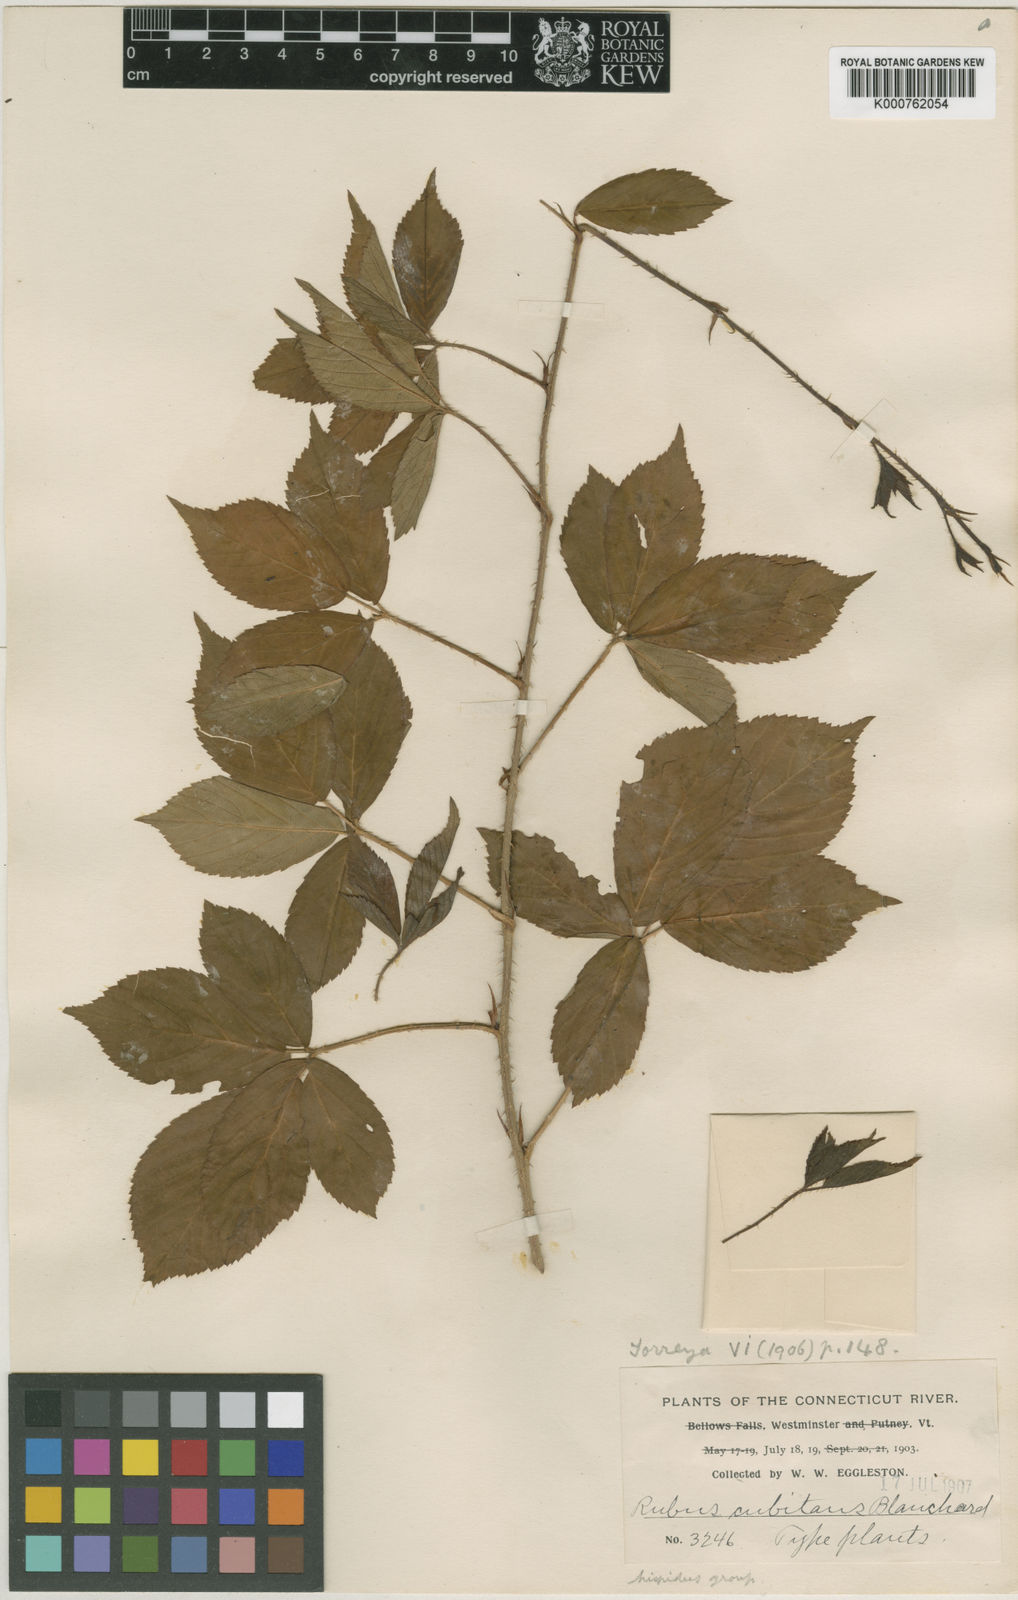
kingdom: Plantae
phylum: Tracheophyta
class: Magnoliopsida
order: Rosales
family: Rosaceae
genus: Rubus
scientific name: Rubus cubitans
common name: Sprawling dewberry
